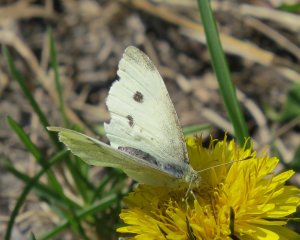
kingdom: Animalia
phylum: Arthropoda
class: Insecta
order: Lepidoptera
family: Pieridae
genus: Pieris
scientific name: Pieris rapae
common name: Cabbage White
